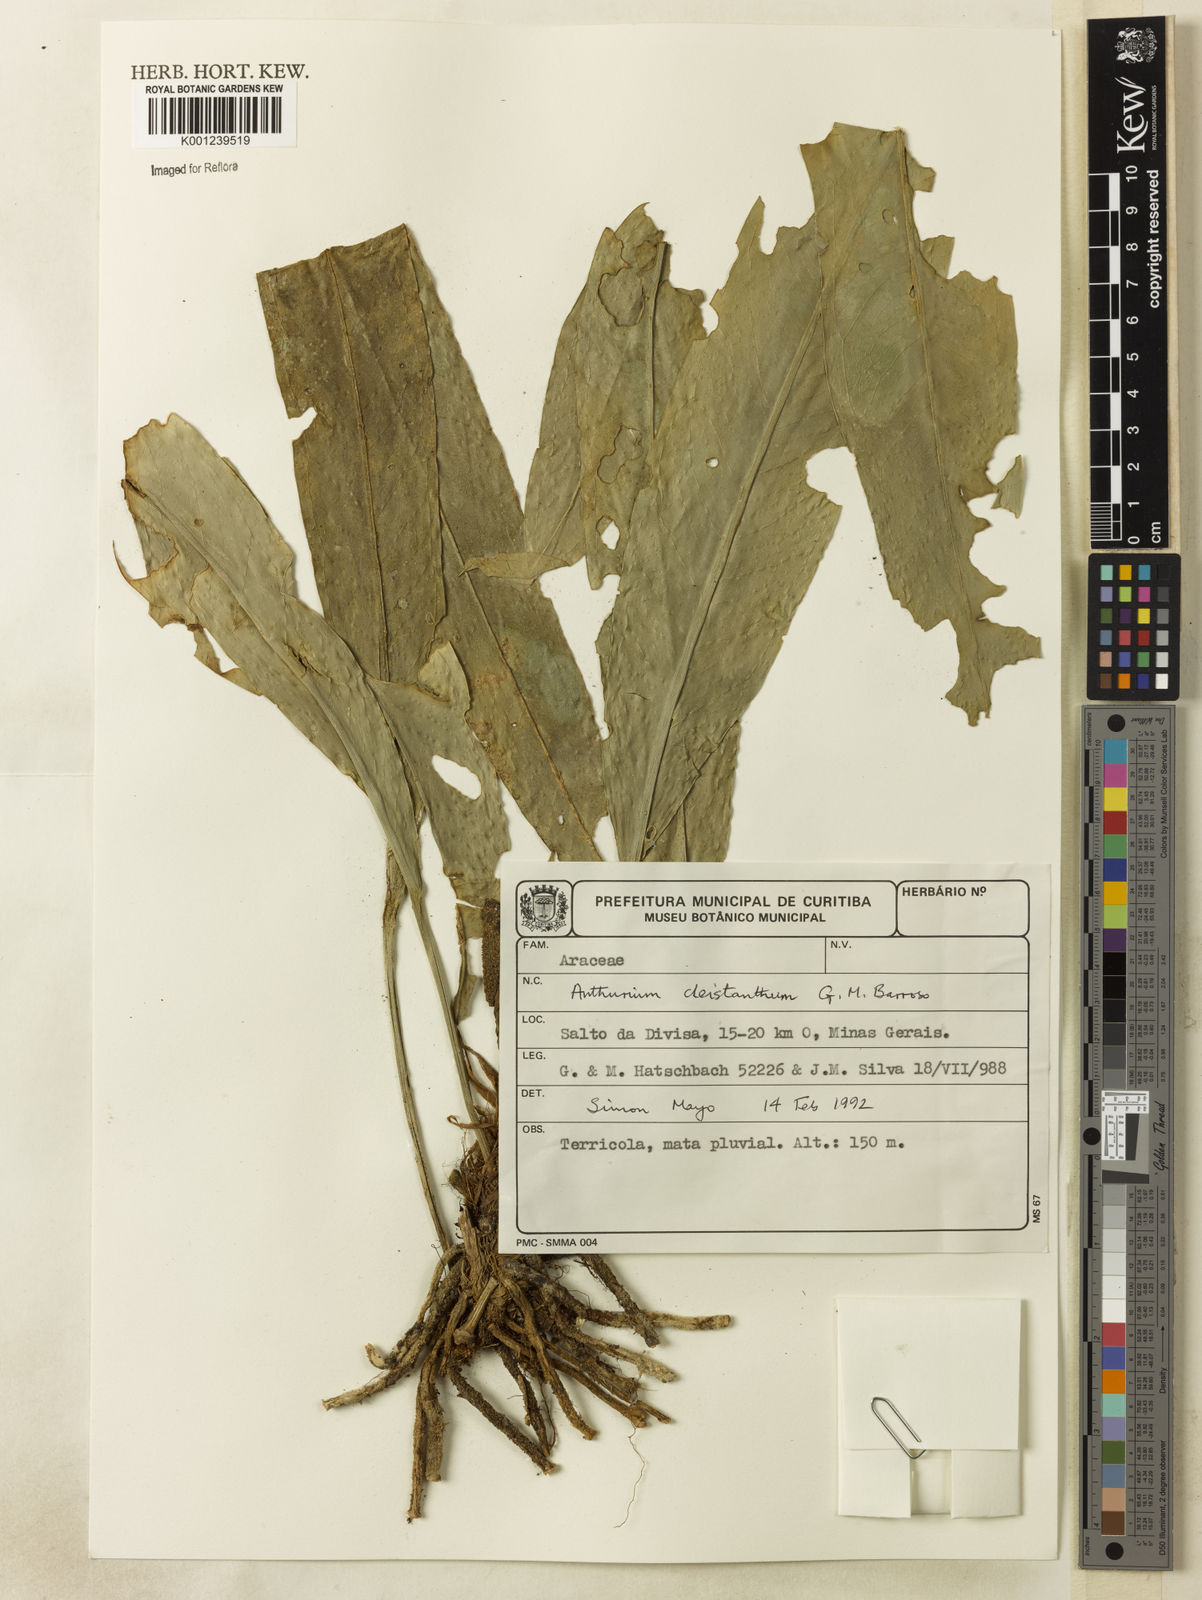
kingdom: Plantae
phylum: Tracheophyta
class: Liliopsida
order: Alismatales
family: Araceae
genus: Anthurium
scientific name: Anthurium cleistanthum
